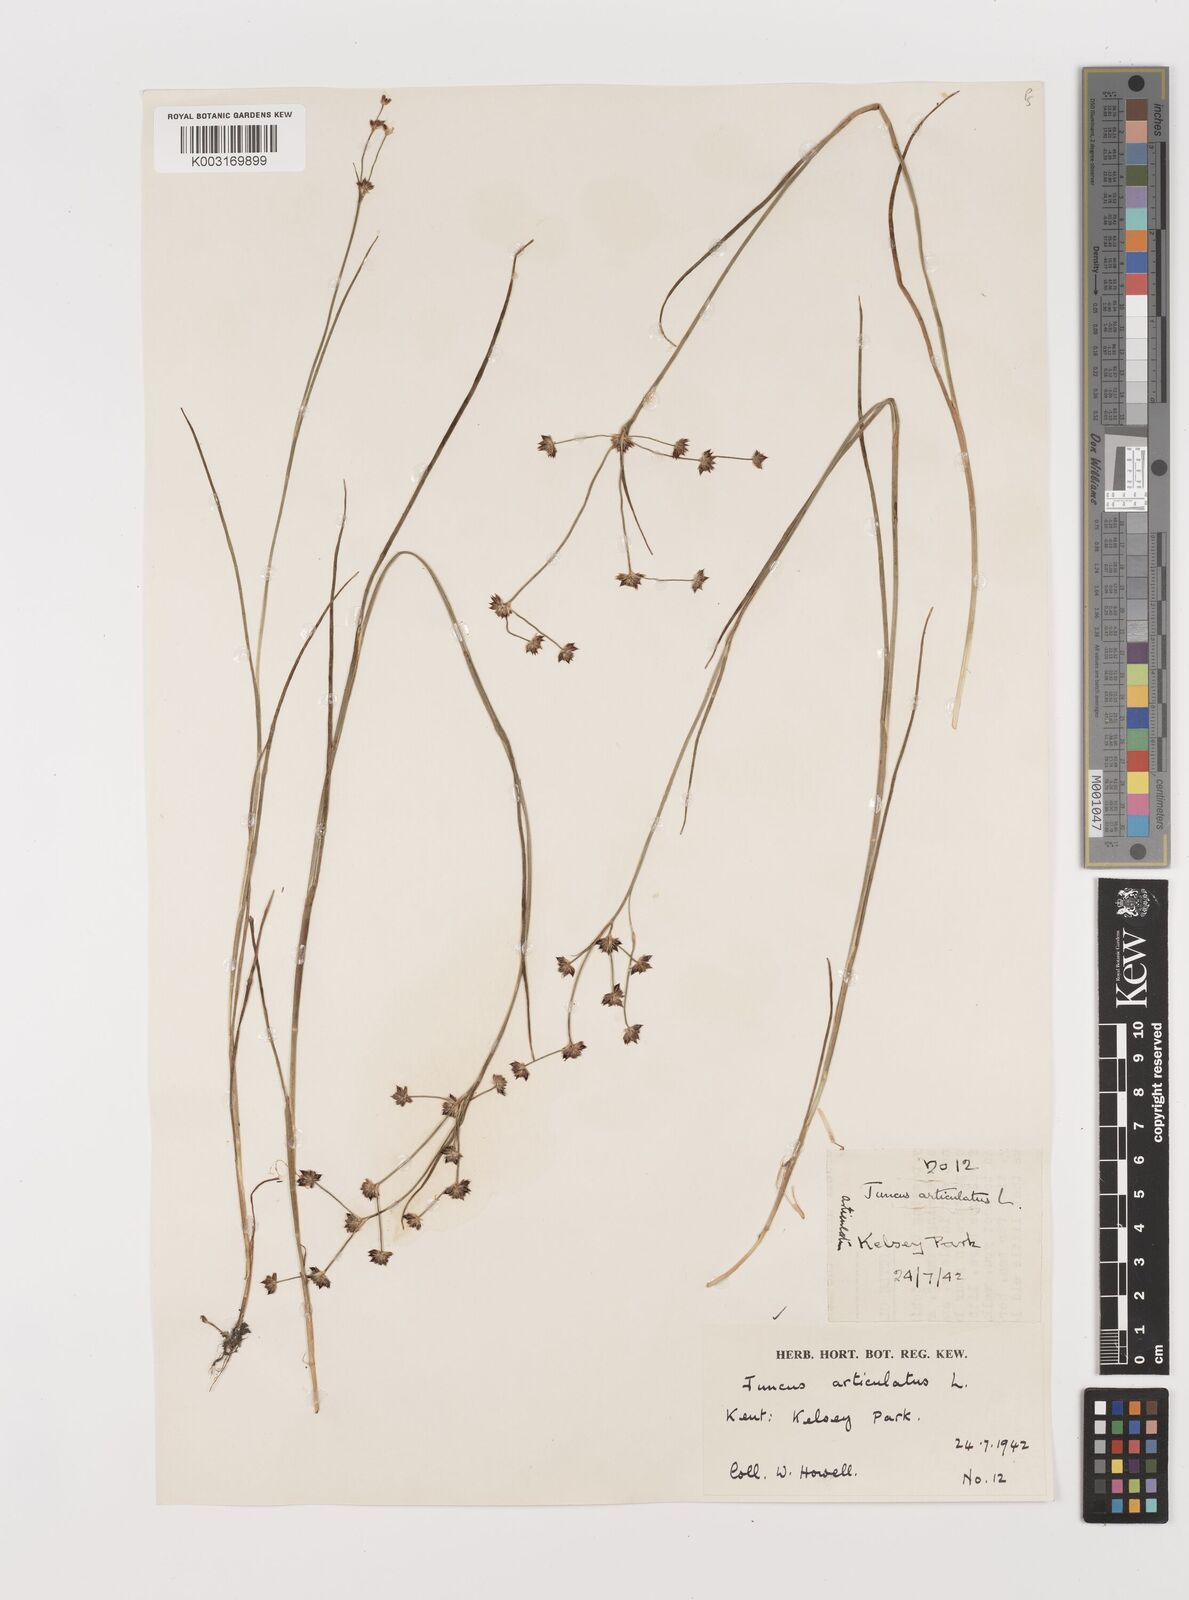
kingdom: Plantae
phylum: Tracheophyta
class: Liliopsida
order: Poales
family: Juncaceae
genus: Juncus
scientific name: Juncus articulatus
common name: Jointed rush
